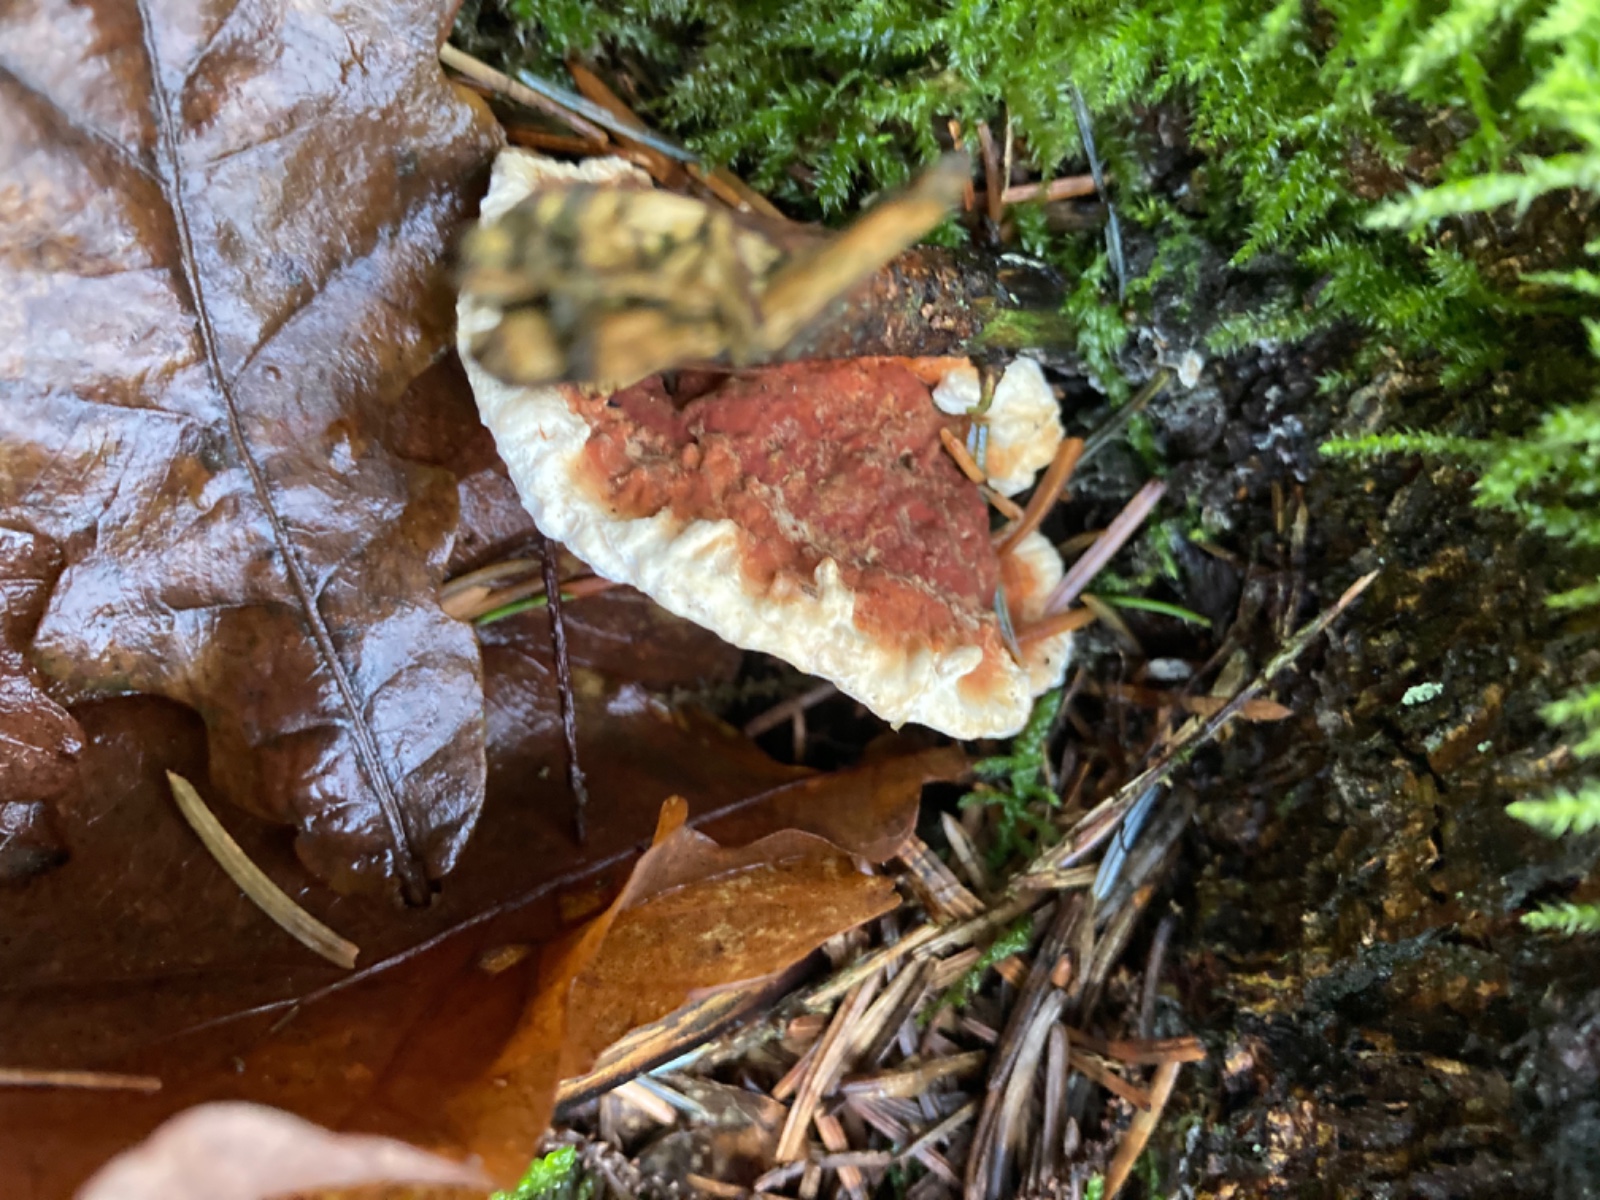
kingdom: Fungi
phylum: Basidiomycota
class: Agaricomycetes
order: Russulales
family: Bondarzewiaceae
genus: Heterobasidion
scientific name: Heterobasidion annosum
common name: almindelig rodfordærver
